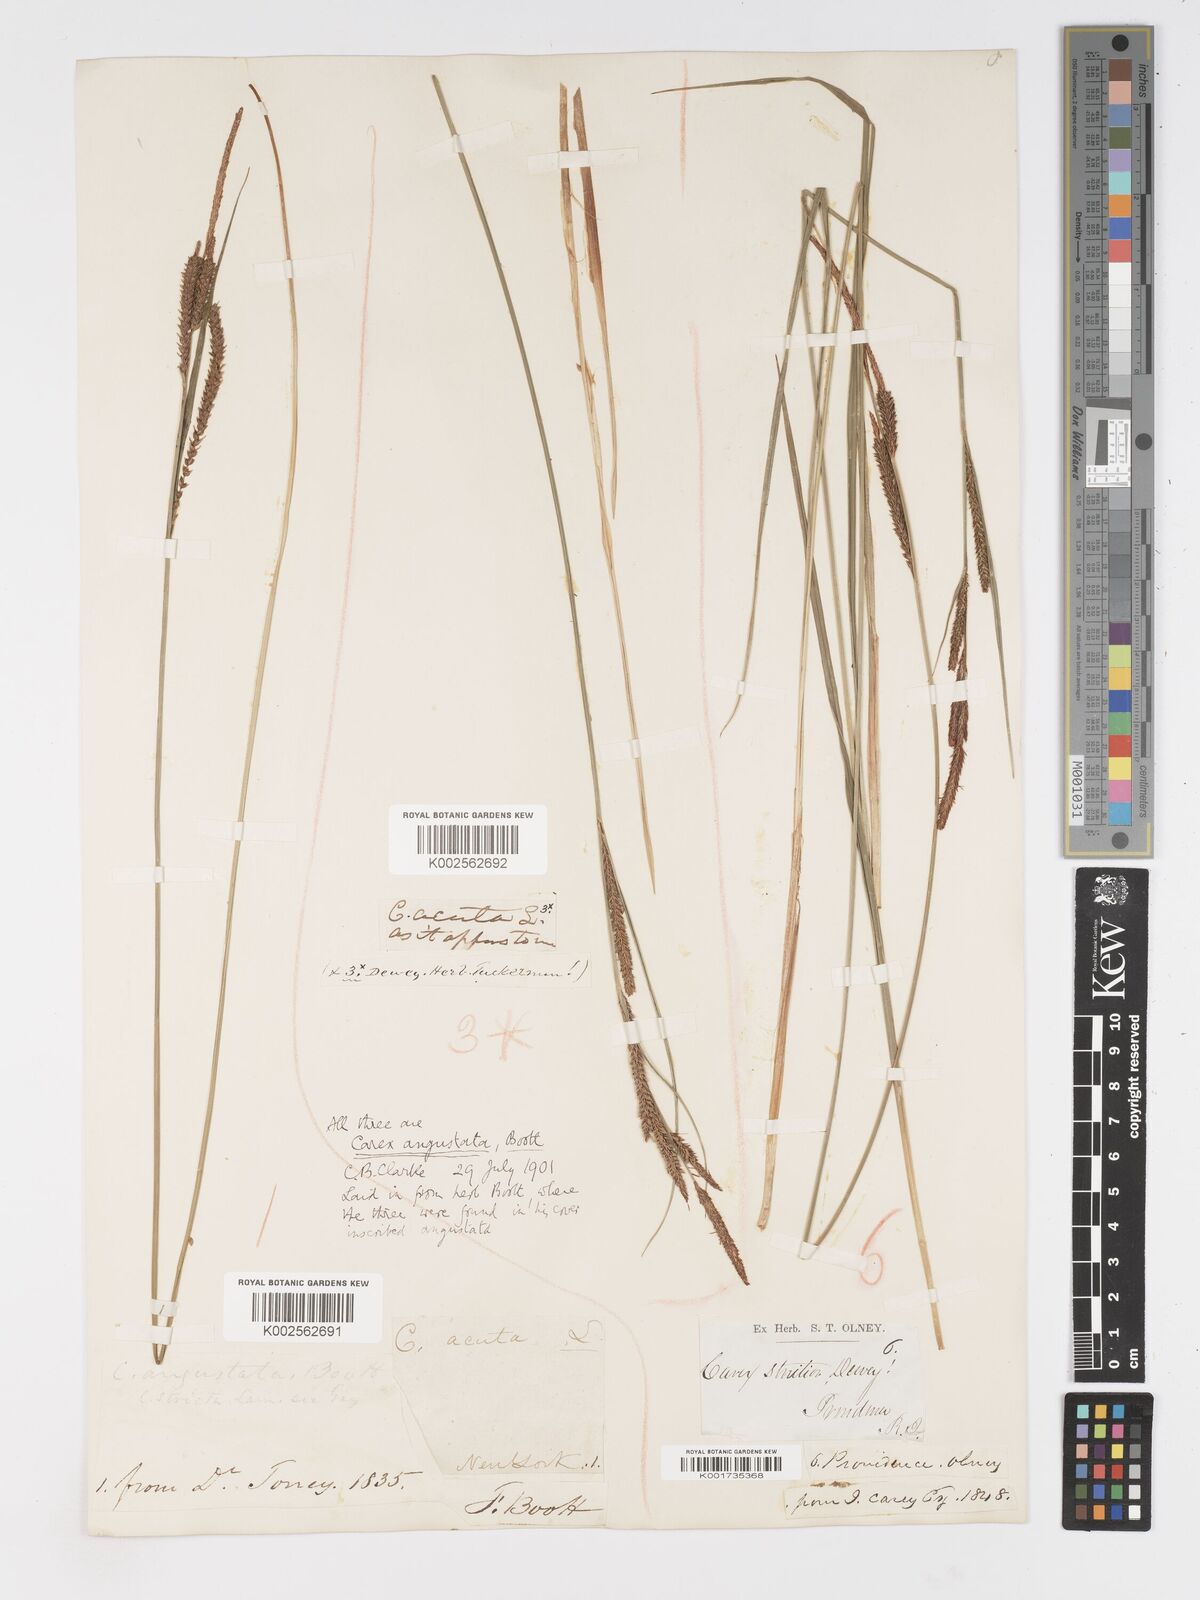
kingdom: Plantae
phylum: Tracheophyta
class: Liliopsida
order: Poales
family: Cyperaceae
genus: Carex
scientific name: Carex stricta
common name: Hummock sedge
